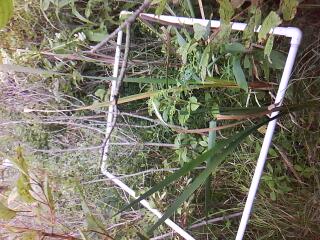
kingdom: Plantae
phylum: Tracheophyta
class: Magnoliopsida
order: Asterales
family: Asteraceae
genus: Eutrochium
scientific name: Eutrochium maculatum
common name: Spotted joe pye weed
